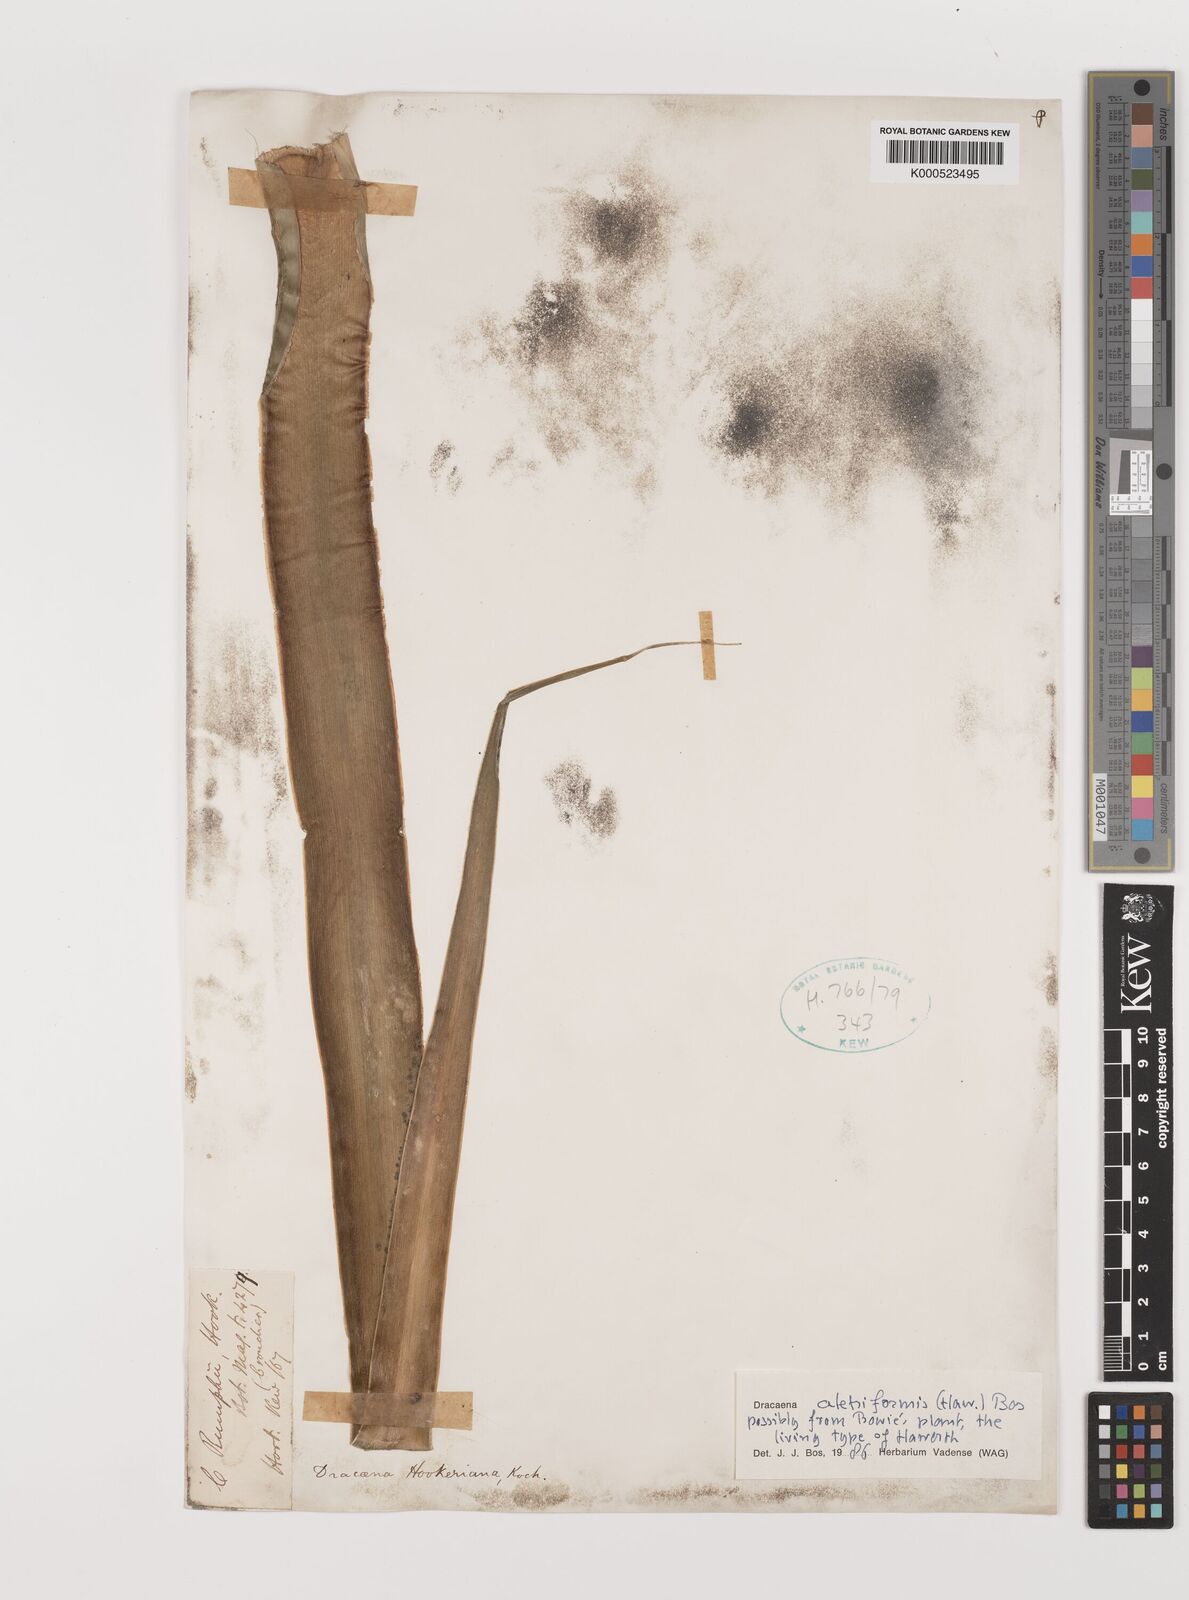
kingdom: Plantae
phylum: Tracheophyta
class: Liliopsida
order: Asparagales
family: Asparagaceae
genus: Dracaena
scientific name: Dracaena aletriformis
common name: Large-leaved dragon tree
